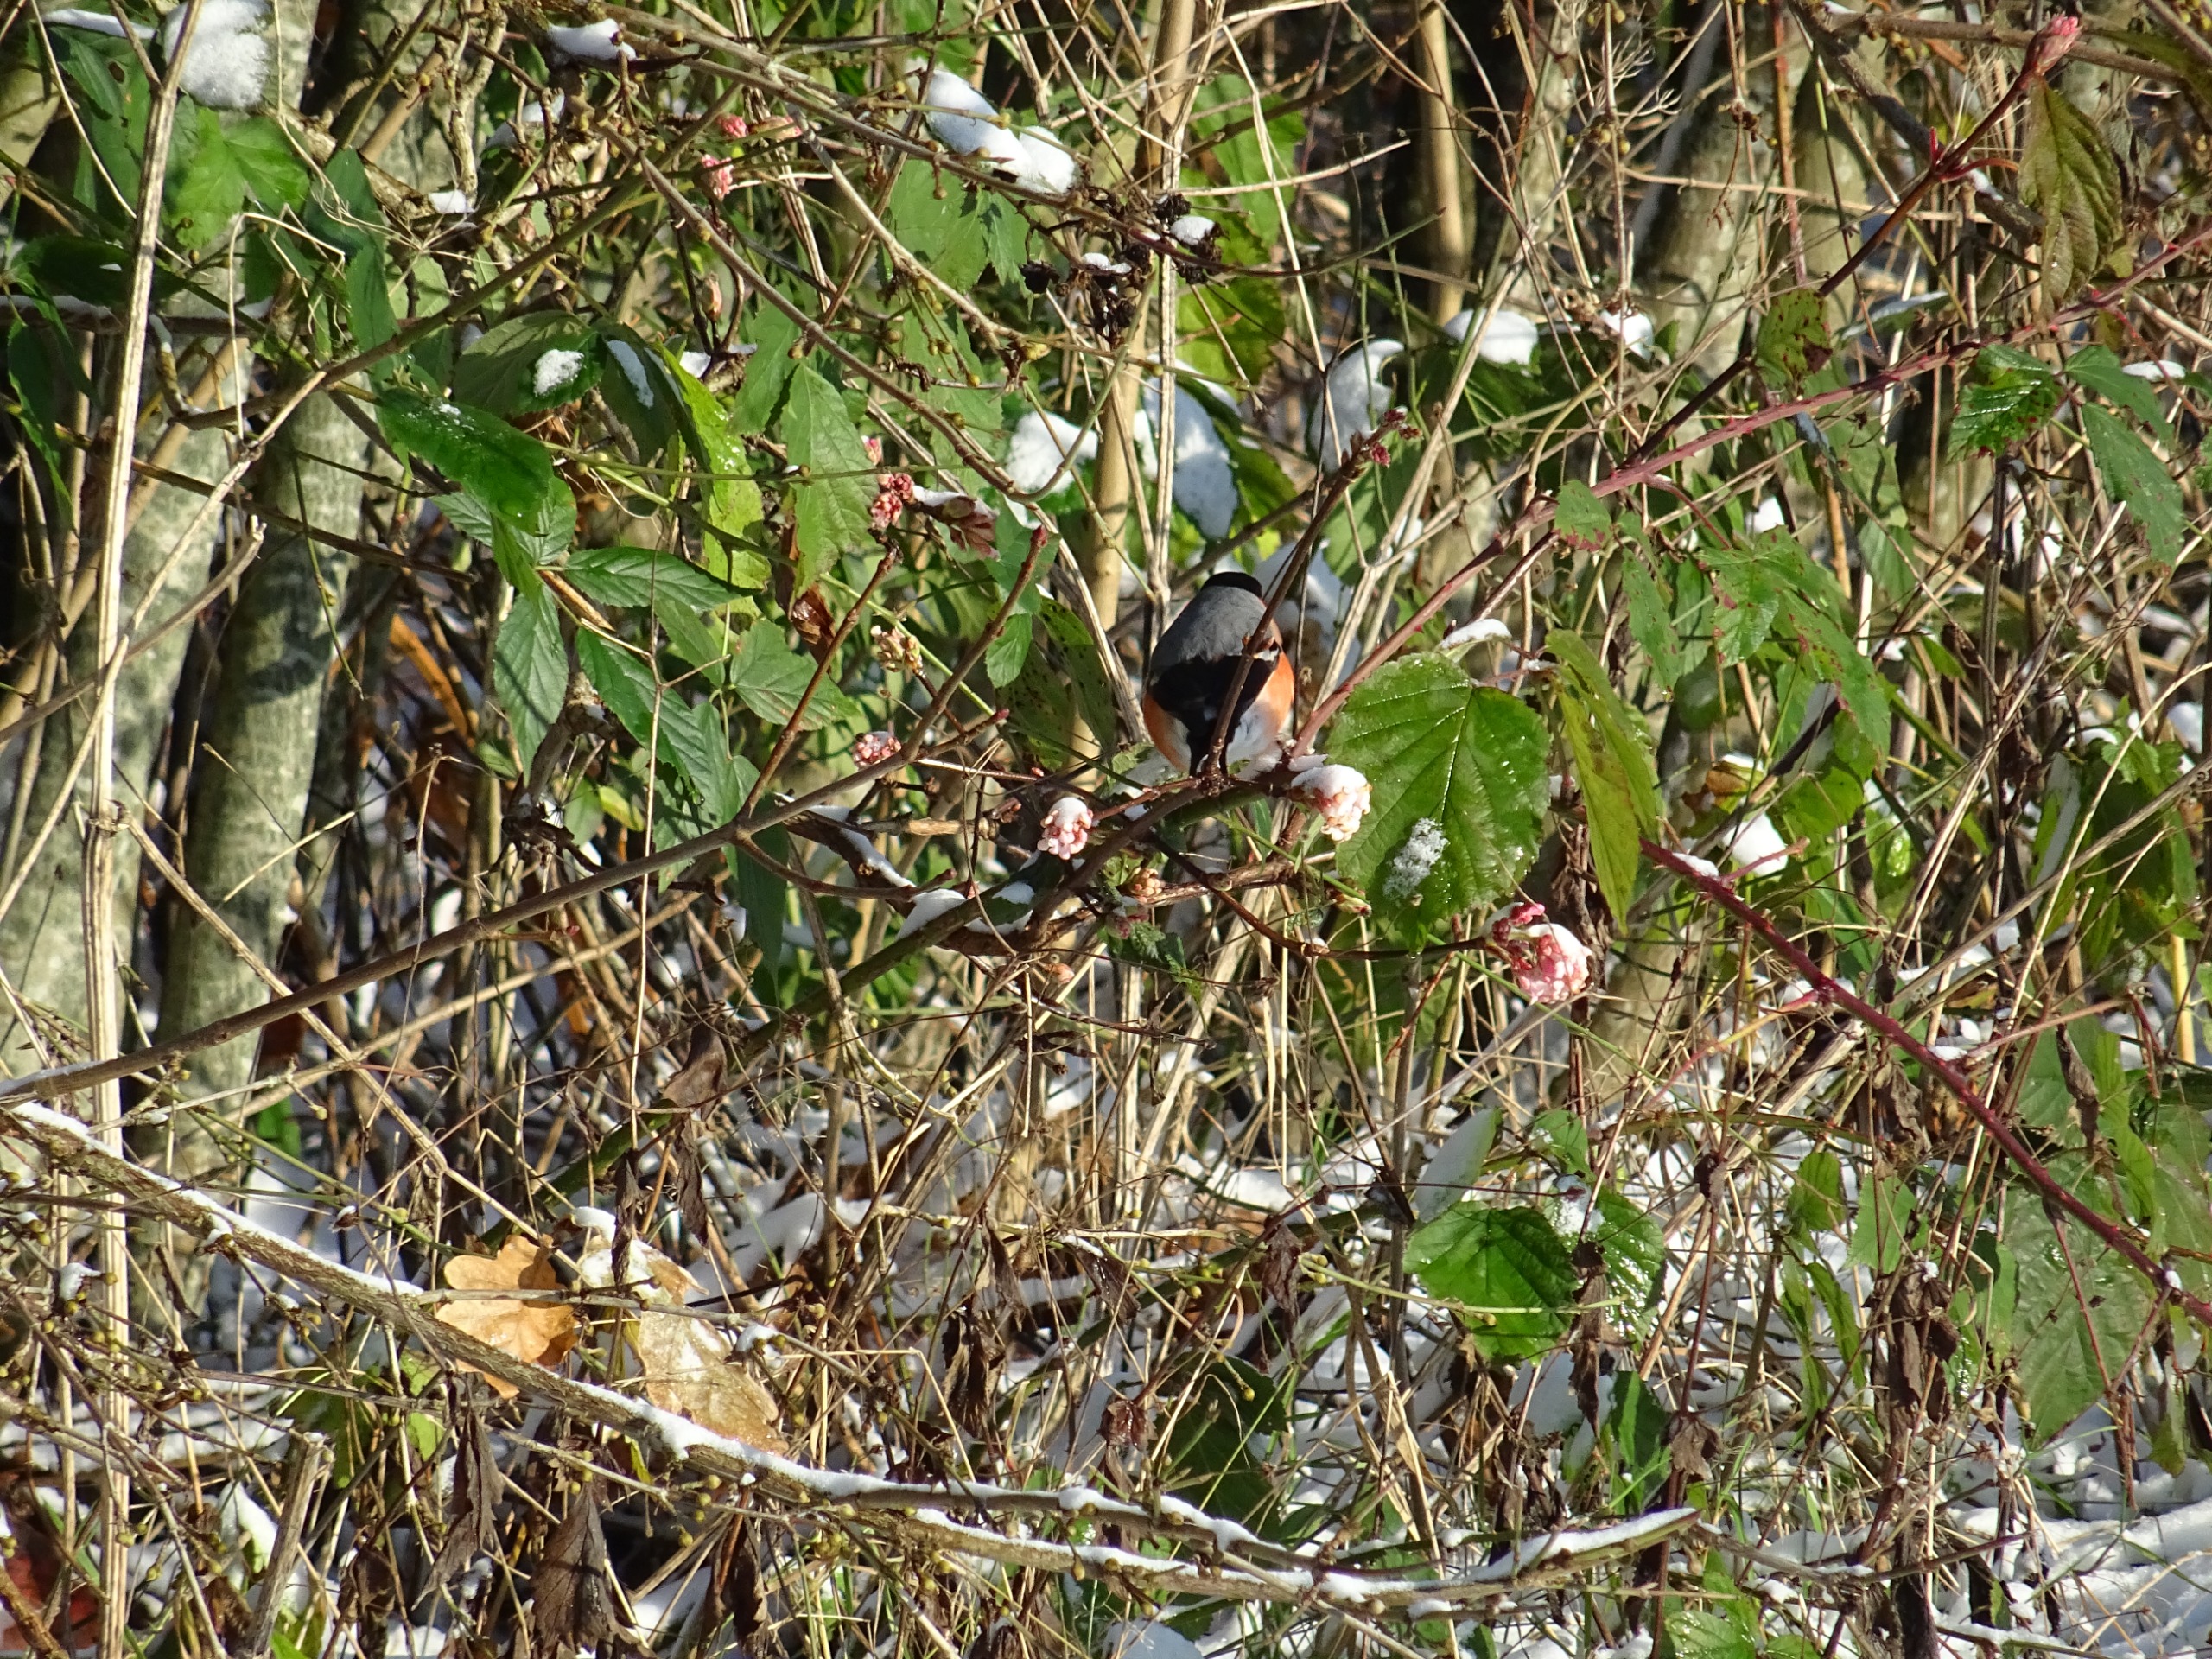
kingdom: Animalia
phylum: Chordata
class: Aves
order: Passeriformes
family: Fringillidae
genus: Pyrrhula
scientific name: Pyrrhula pyrrhula
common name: Dompap
